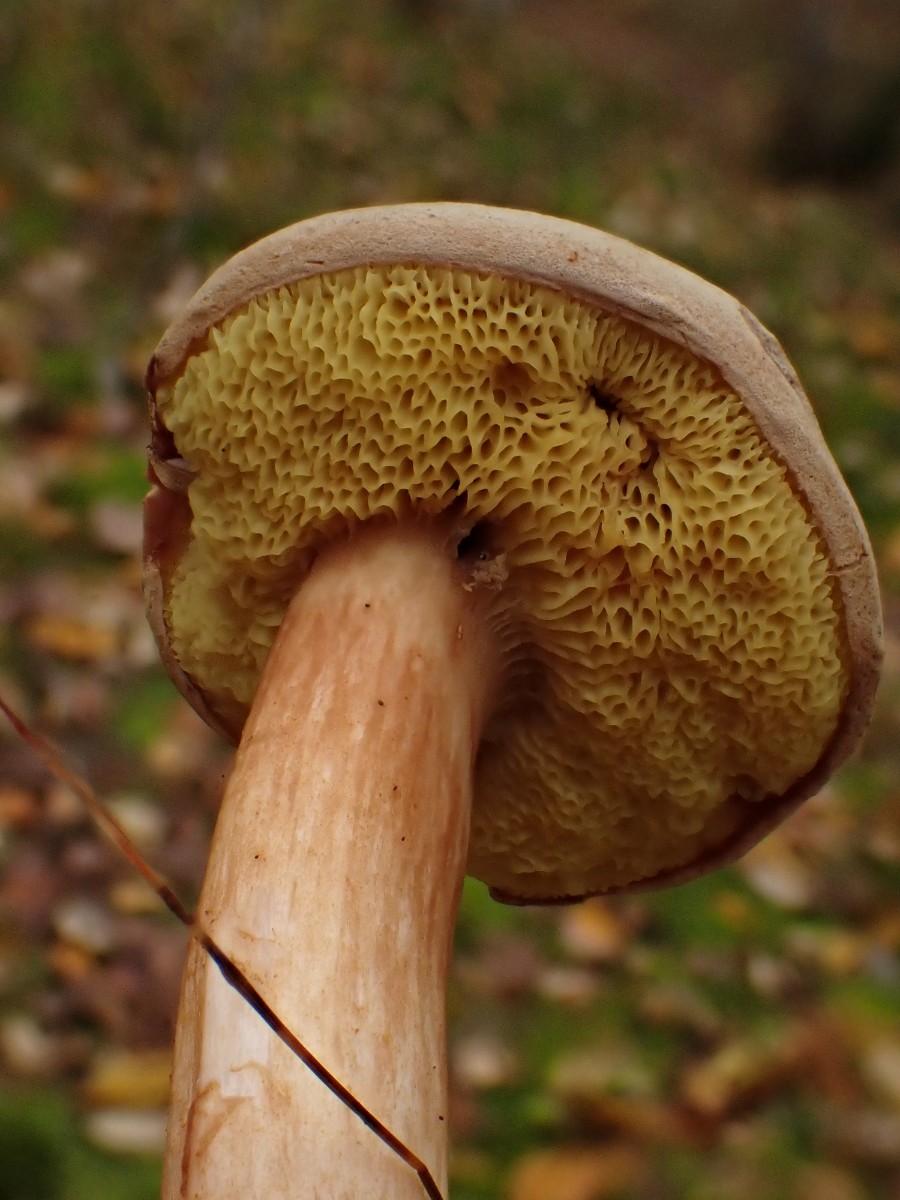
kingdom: Fungi
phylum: Basidiomycota
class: Agaricomycetes
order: Boletales
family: Boletaceae
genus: Xerocomus
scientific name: Xerocomus ferrugineus
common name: vaskeskinds-rørhat
